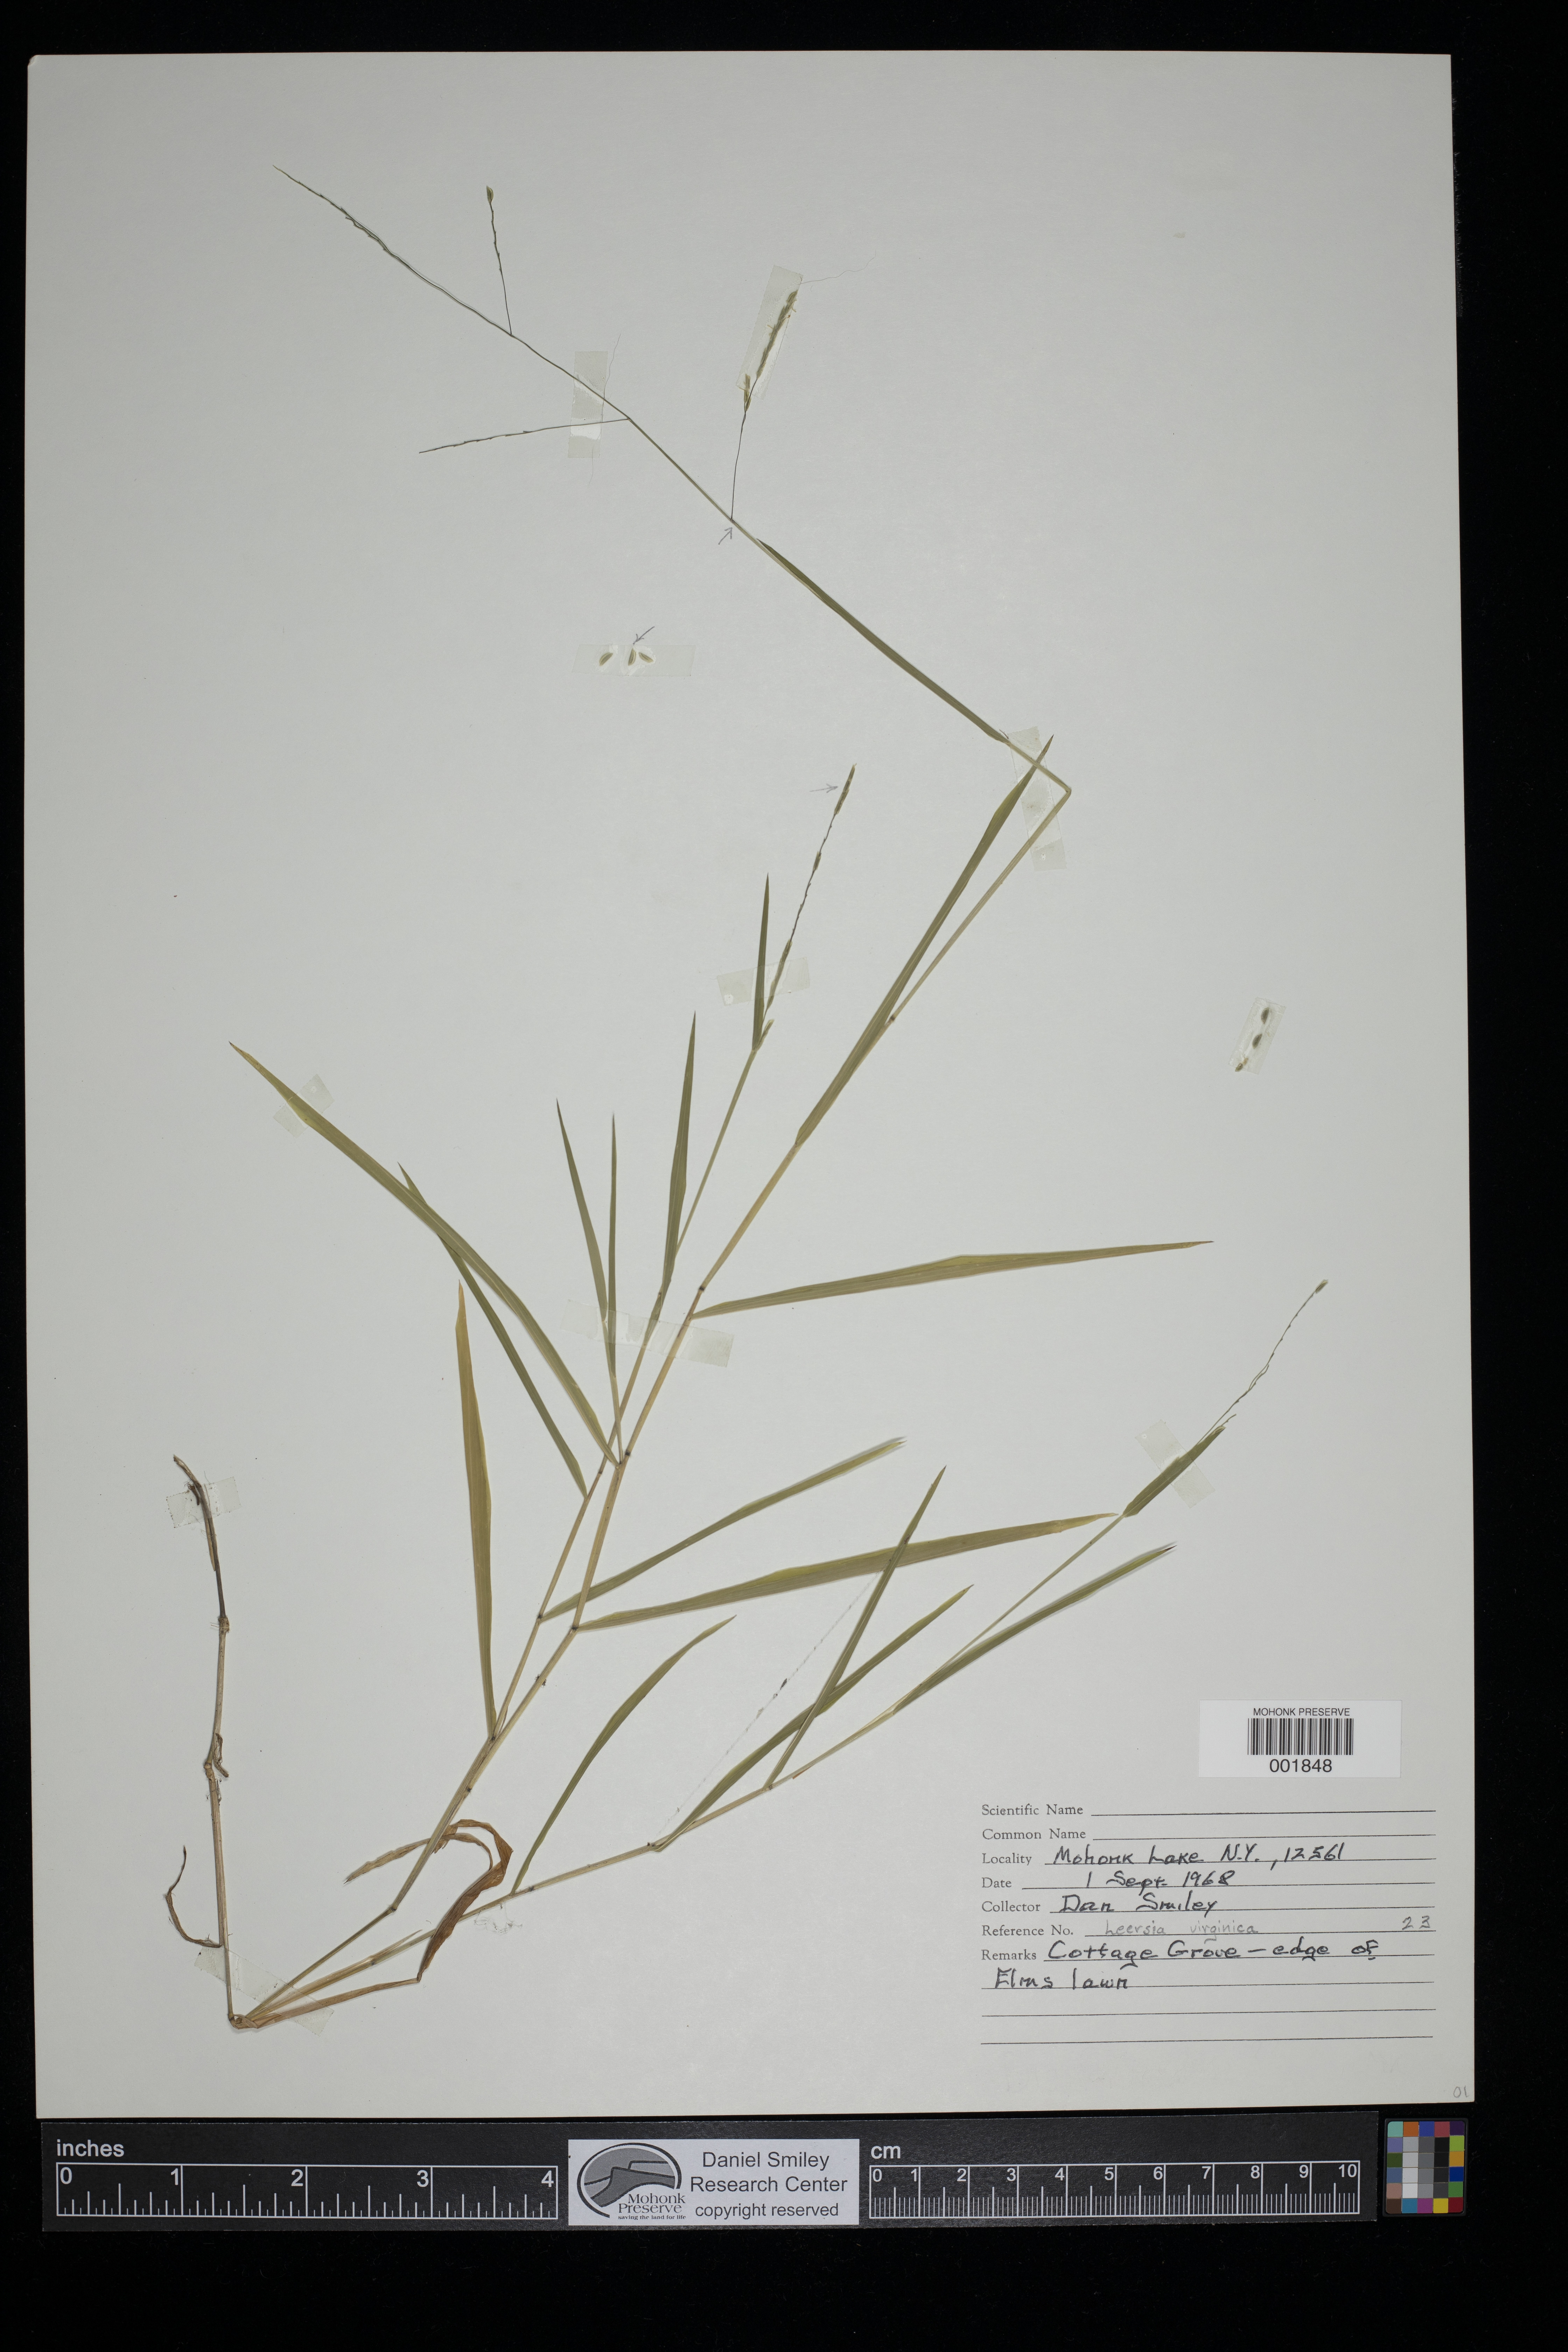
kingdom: Plantae
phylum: Tracheophyta
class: Liliopsida
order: Poales
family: Poaceae
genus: Leersia
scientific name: Leersia virginica
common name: White cutgrass
